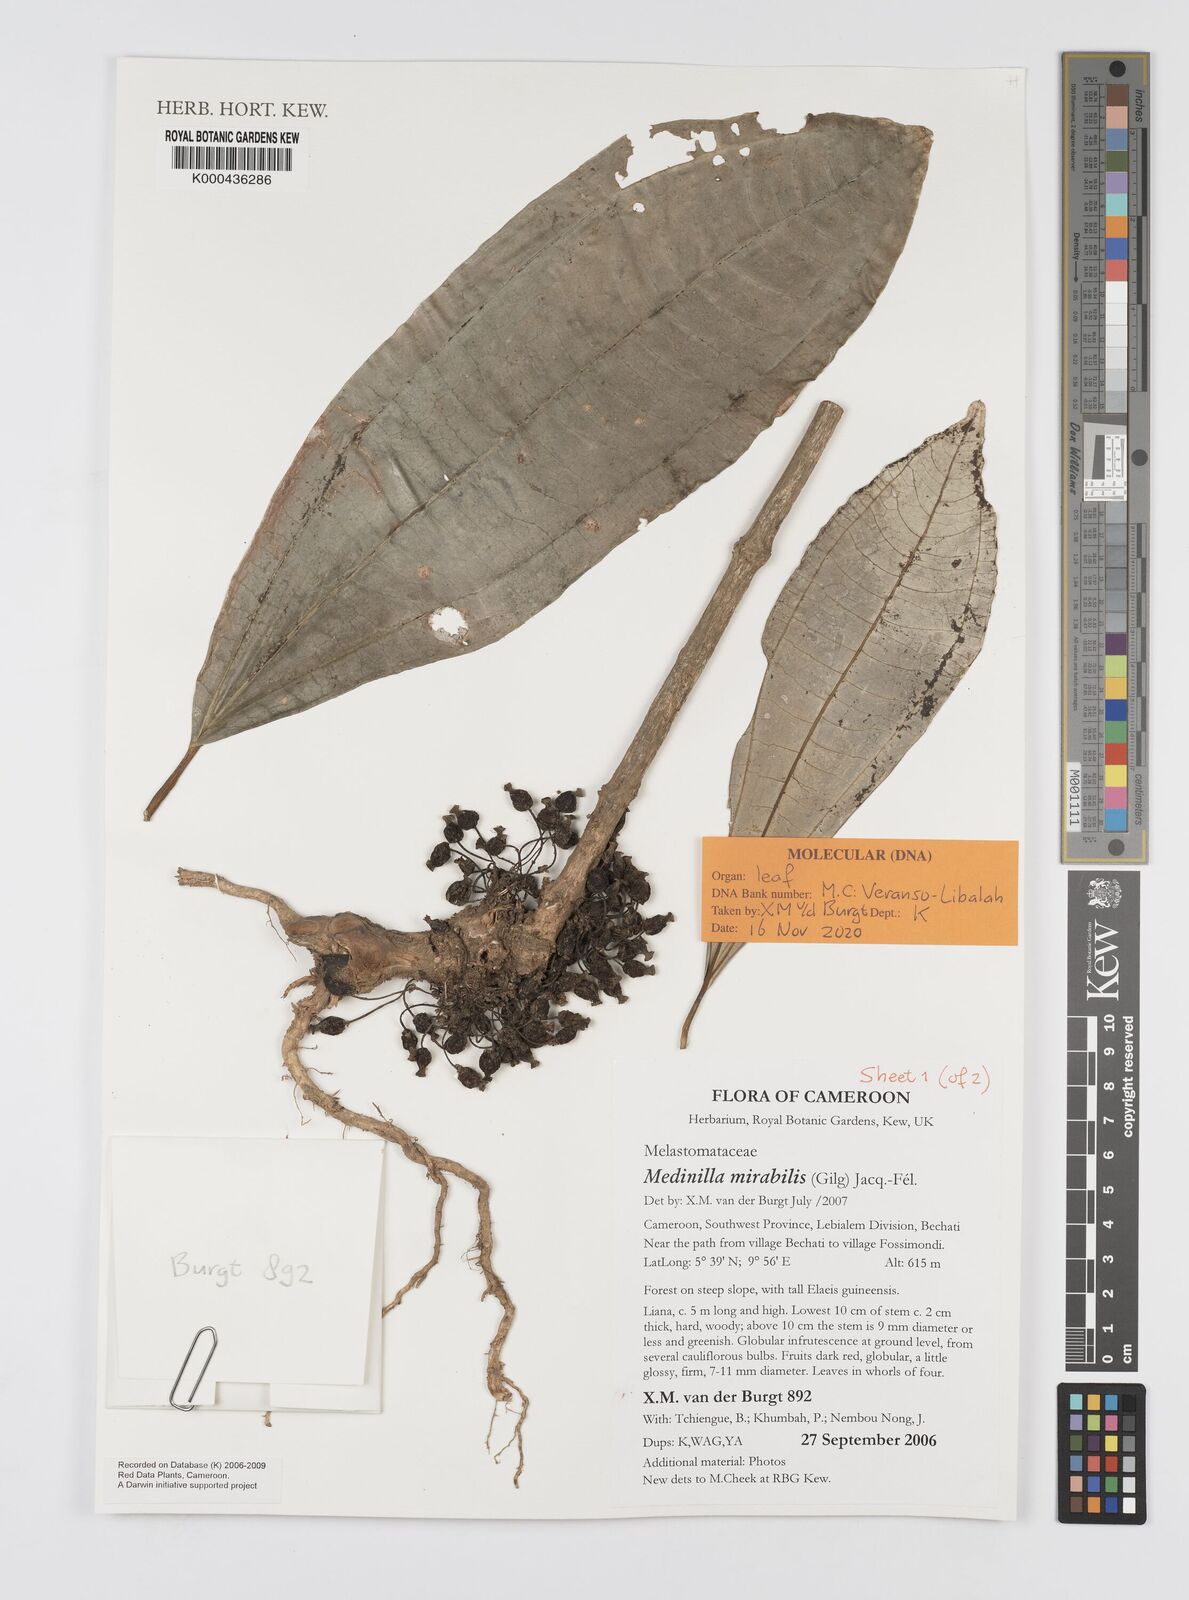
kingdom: Plantae
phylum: Tracheophyta
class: Magnoliopsida
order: Myrtales
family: Melastomataceae
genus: Medinilla
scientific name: Medinilla
